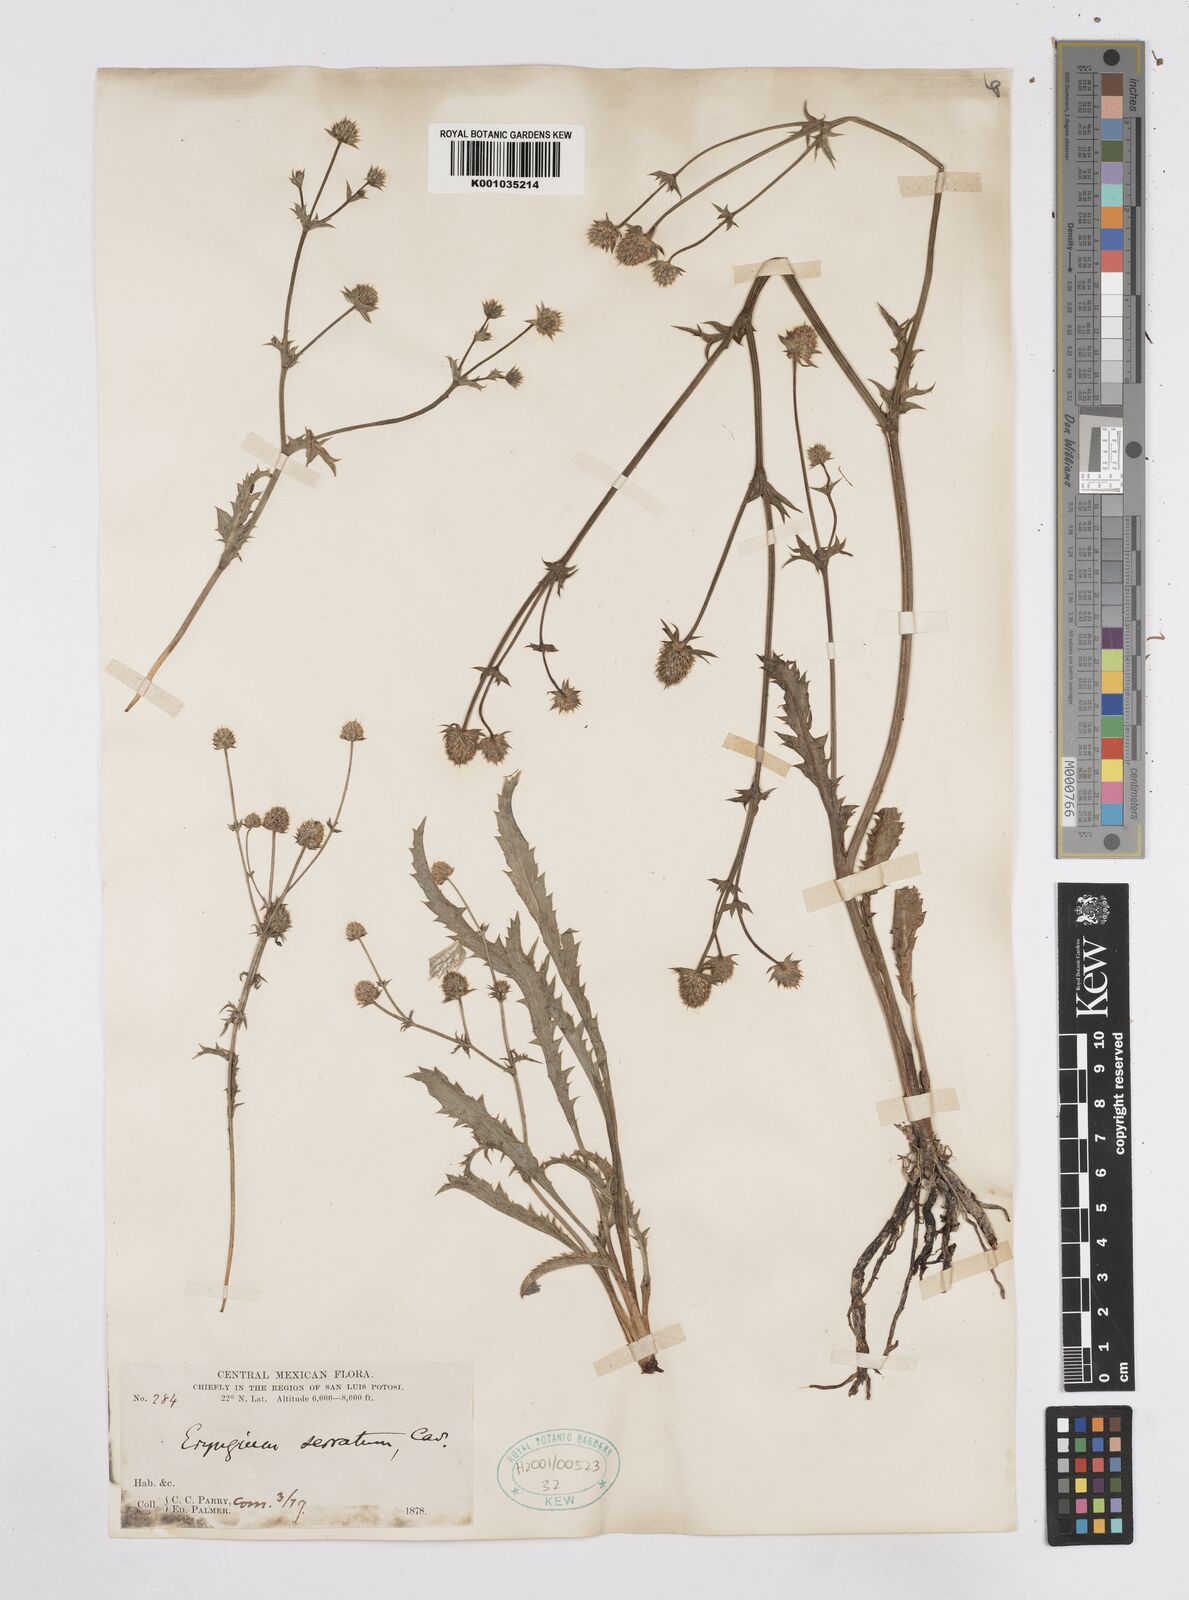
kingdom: Plantae
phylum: Tracheophyta
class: Magnoliopsida
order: Apiales
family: Apiaceae
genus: Eryngium
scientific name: Eryngium serratum
